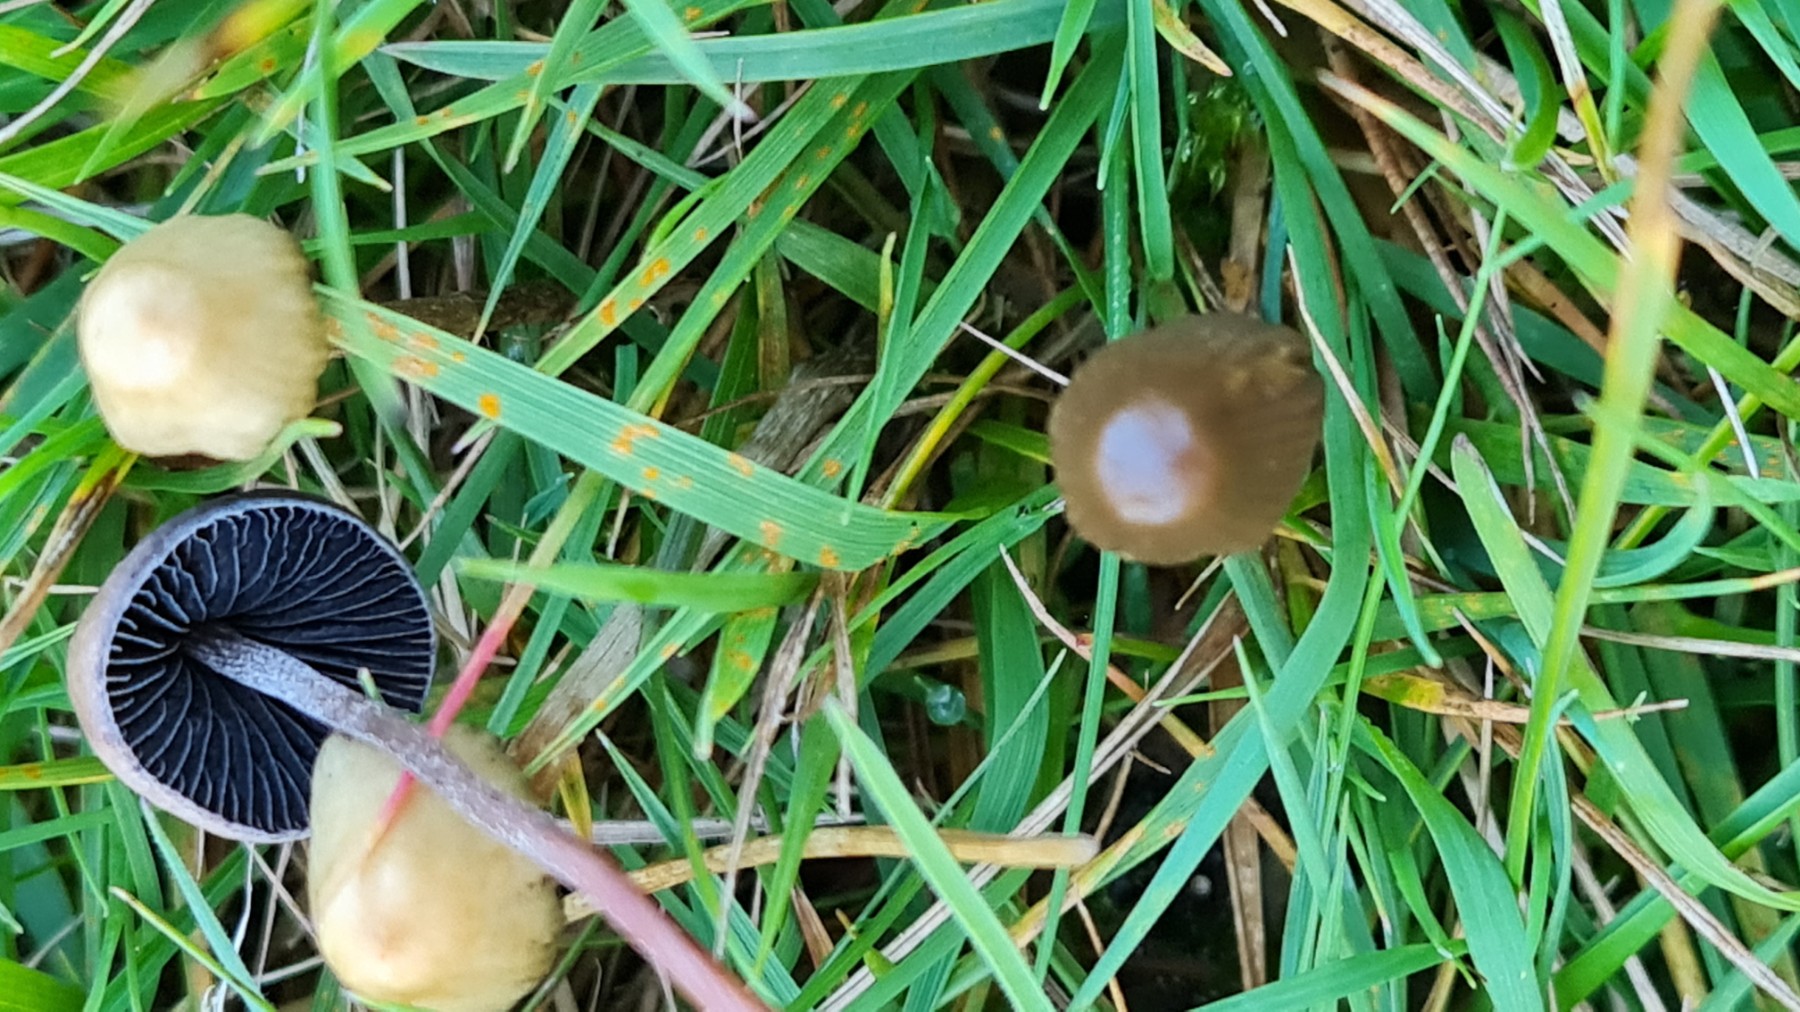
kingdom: Fungi
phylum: Basidiomycota
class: Agaricomycetes
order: Agaricales
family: Hymenogastraceae
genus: Psilocybe
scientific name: Psilocybe semilanceata
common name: spids nøgenhat
